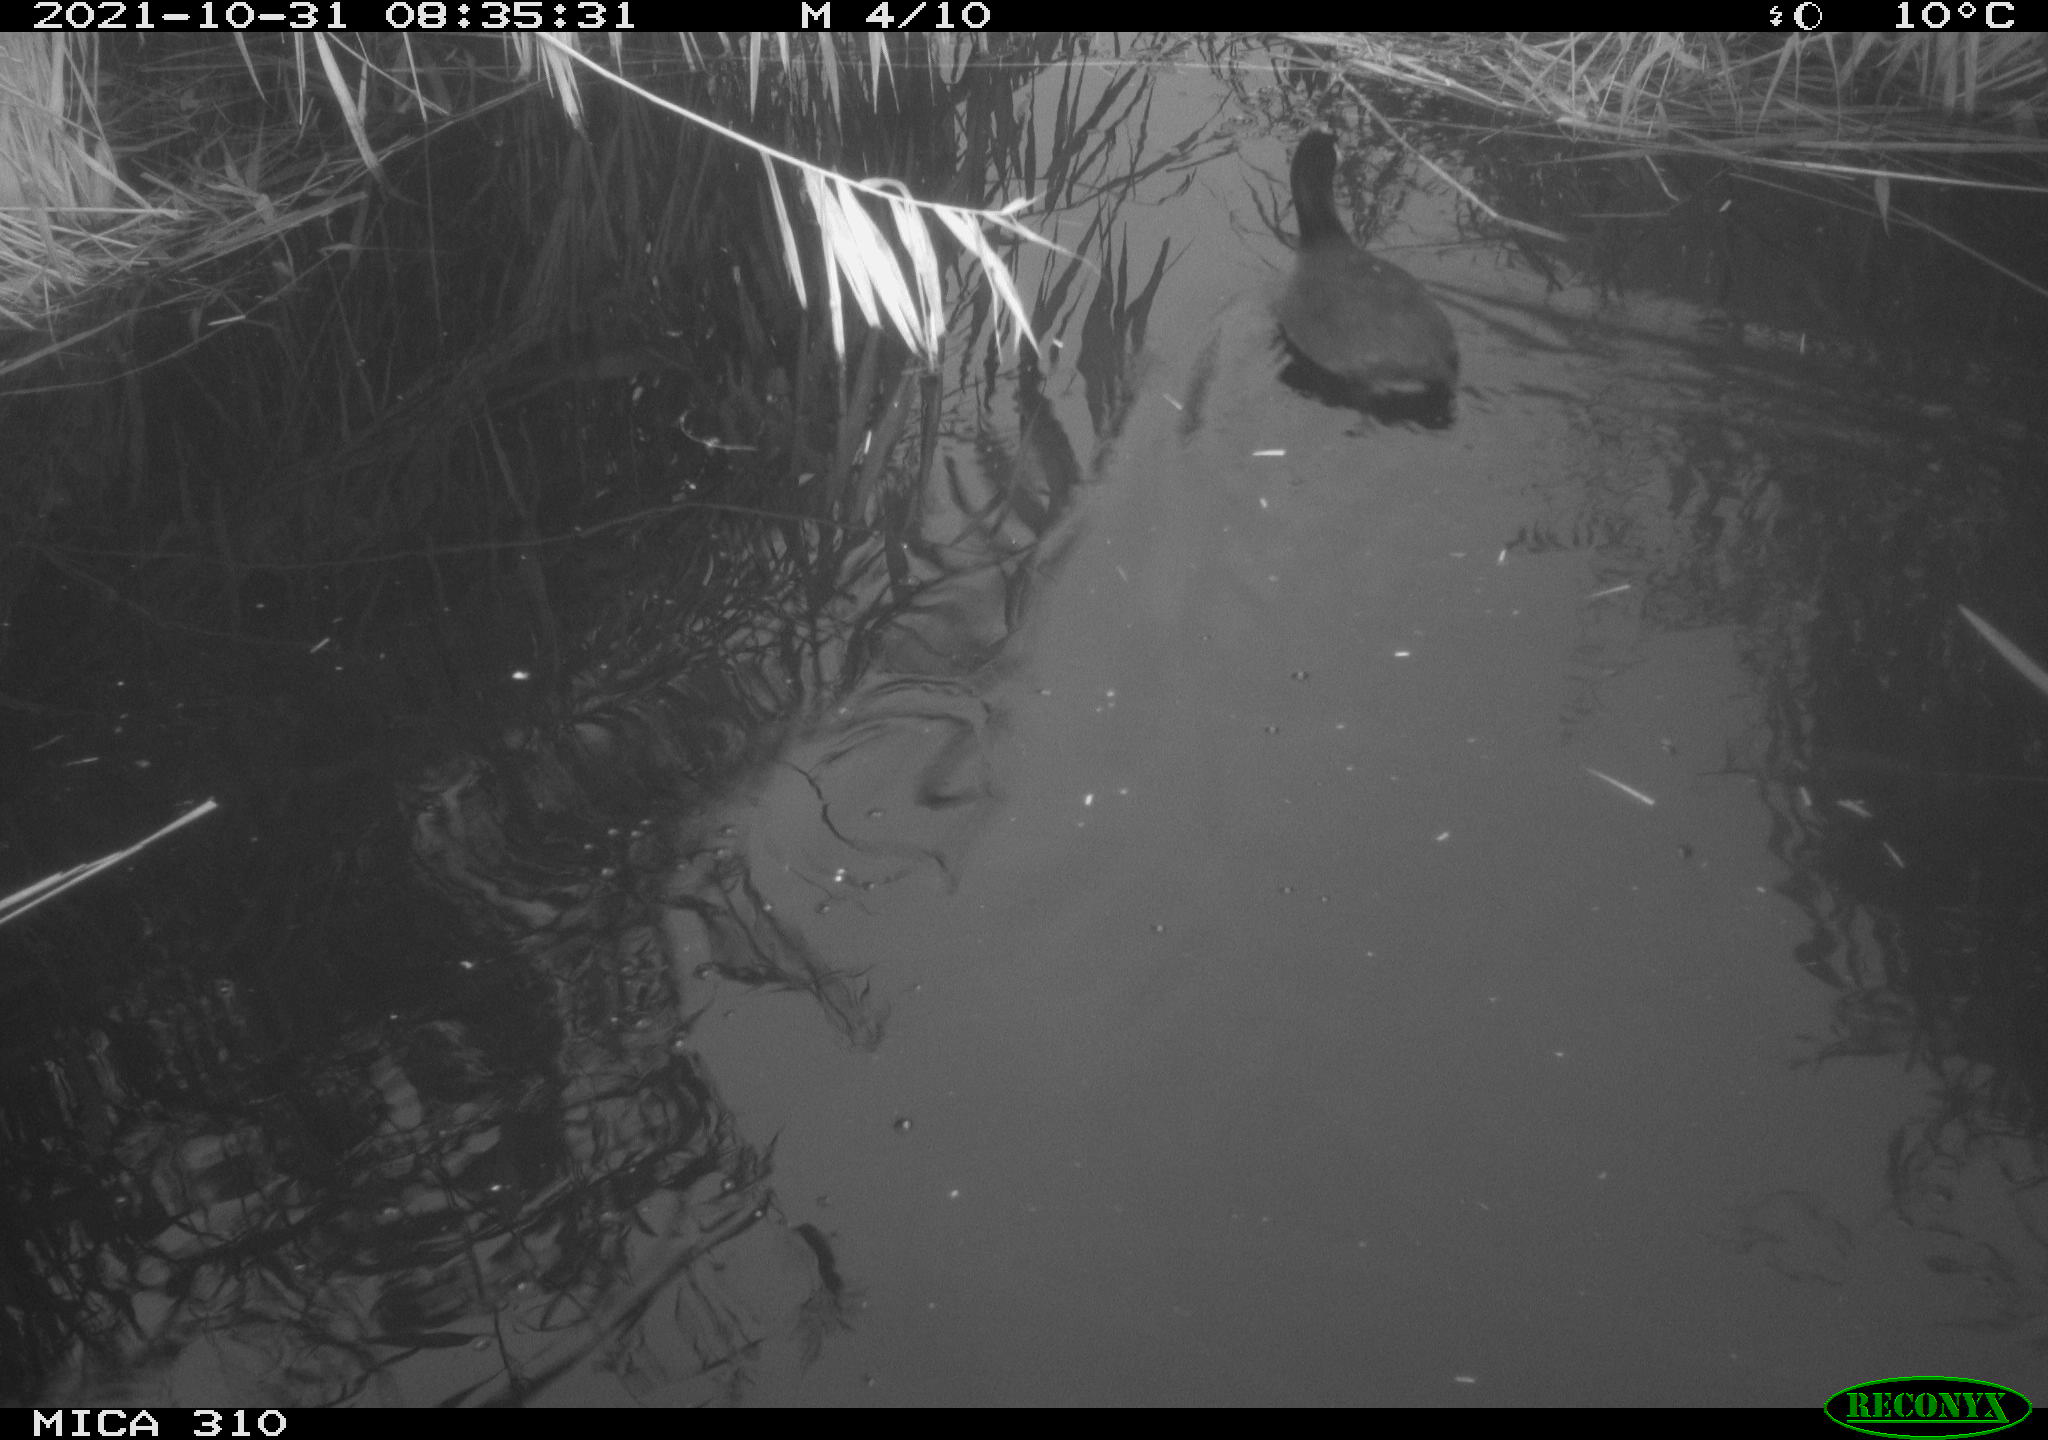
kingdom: Animalia
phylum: Chordata
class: Aves
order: Gruiformes
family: Rallidae
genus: Fulica
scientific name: Fulica atra
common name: Eurasian coot
